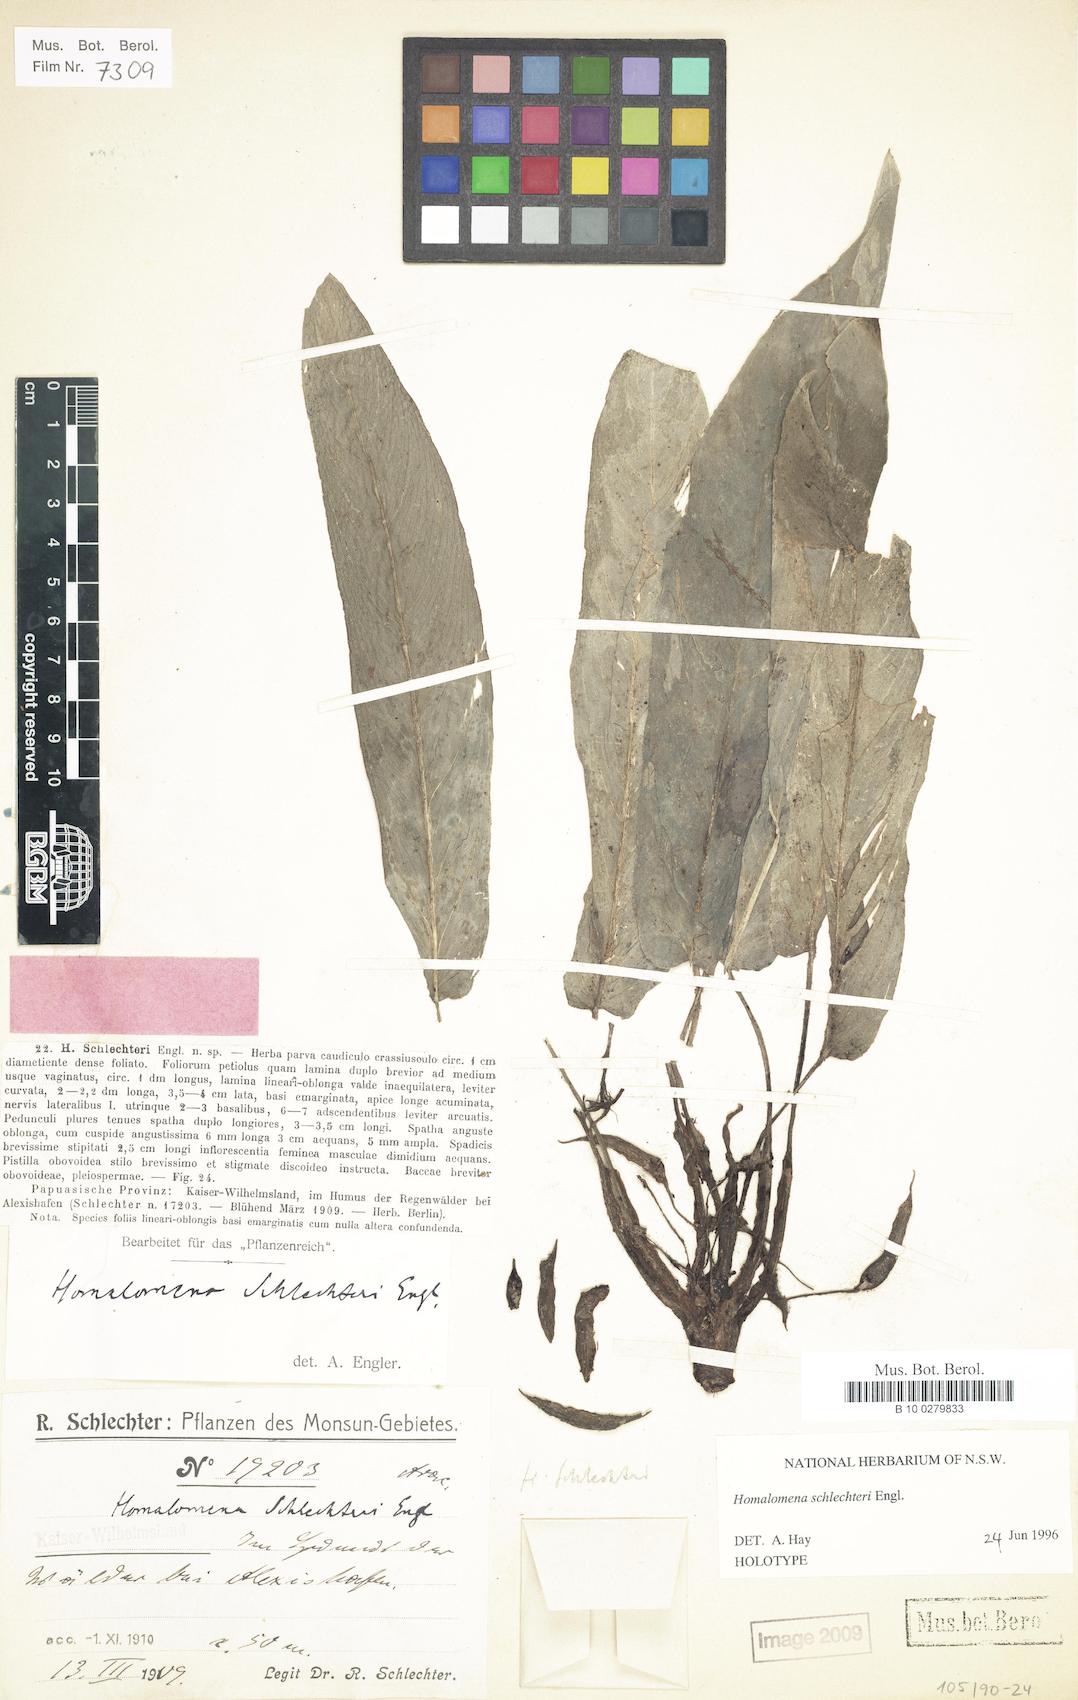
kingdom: Plantae
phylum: Tracheophyta
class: Liliopsida
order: Alismatales
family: Araceae
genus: Homalomena
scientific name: Homalomena schlechteri
